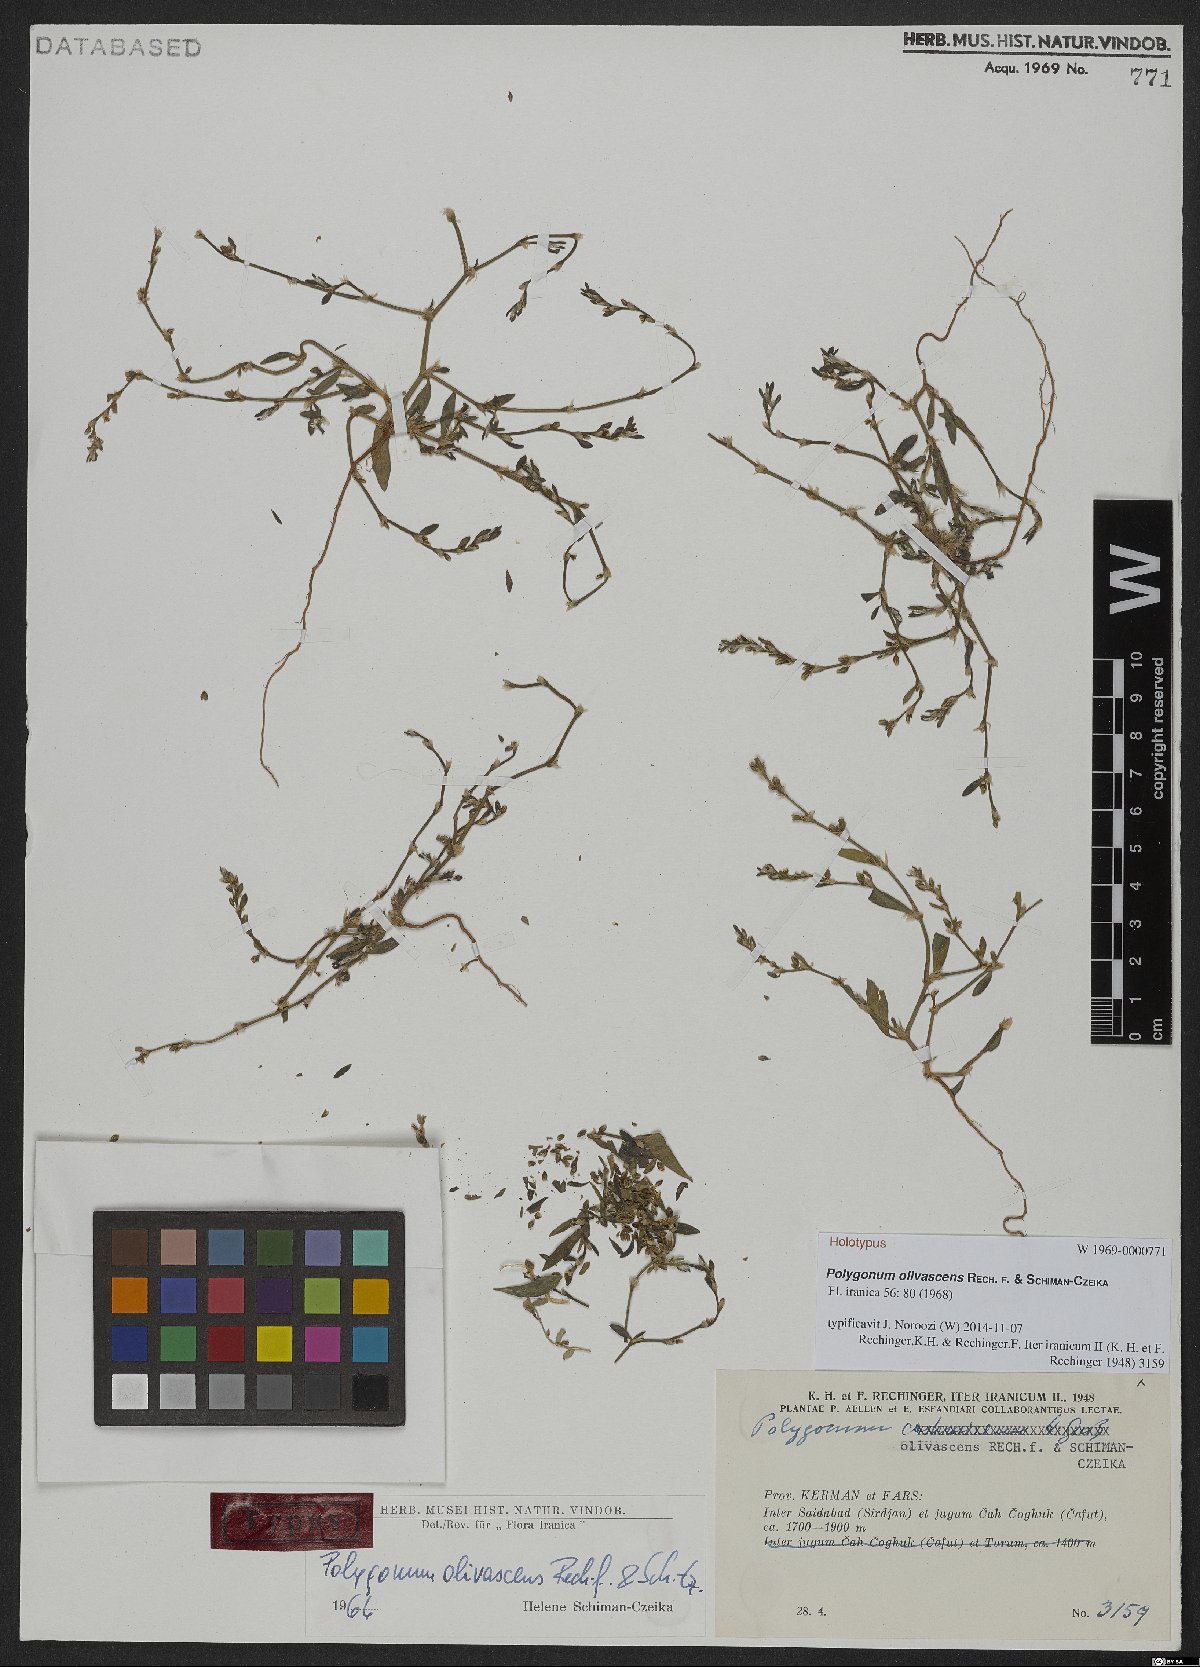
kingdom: Plantae
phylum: Tracheophyta
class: Magnoliopsida
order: Caryophyllales
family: Polygonaceae
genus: Polygonum
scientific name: Polygonum olivascens
